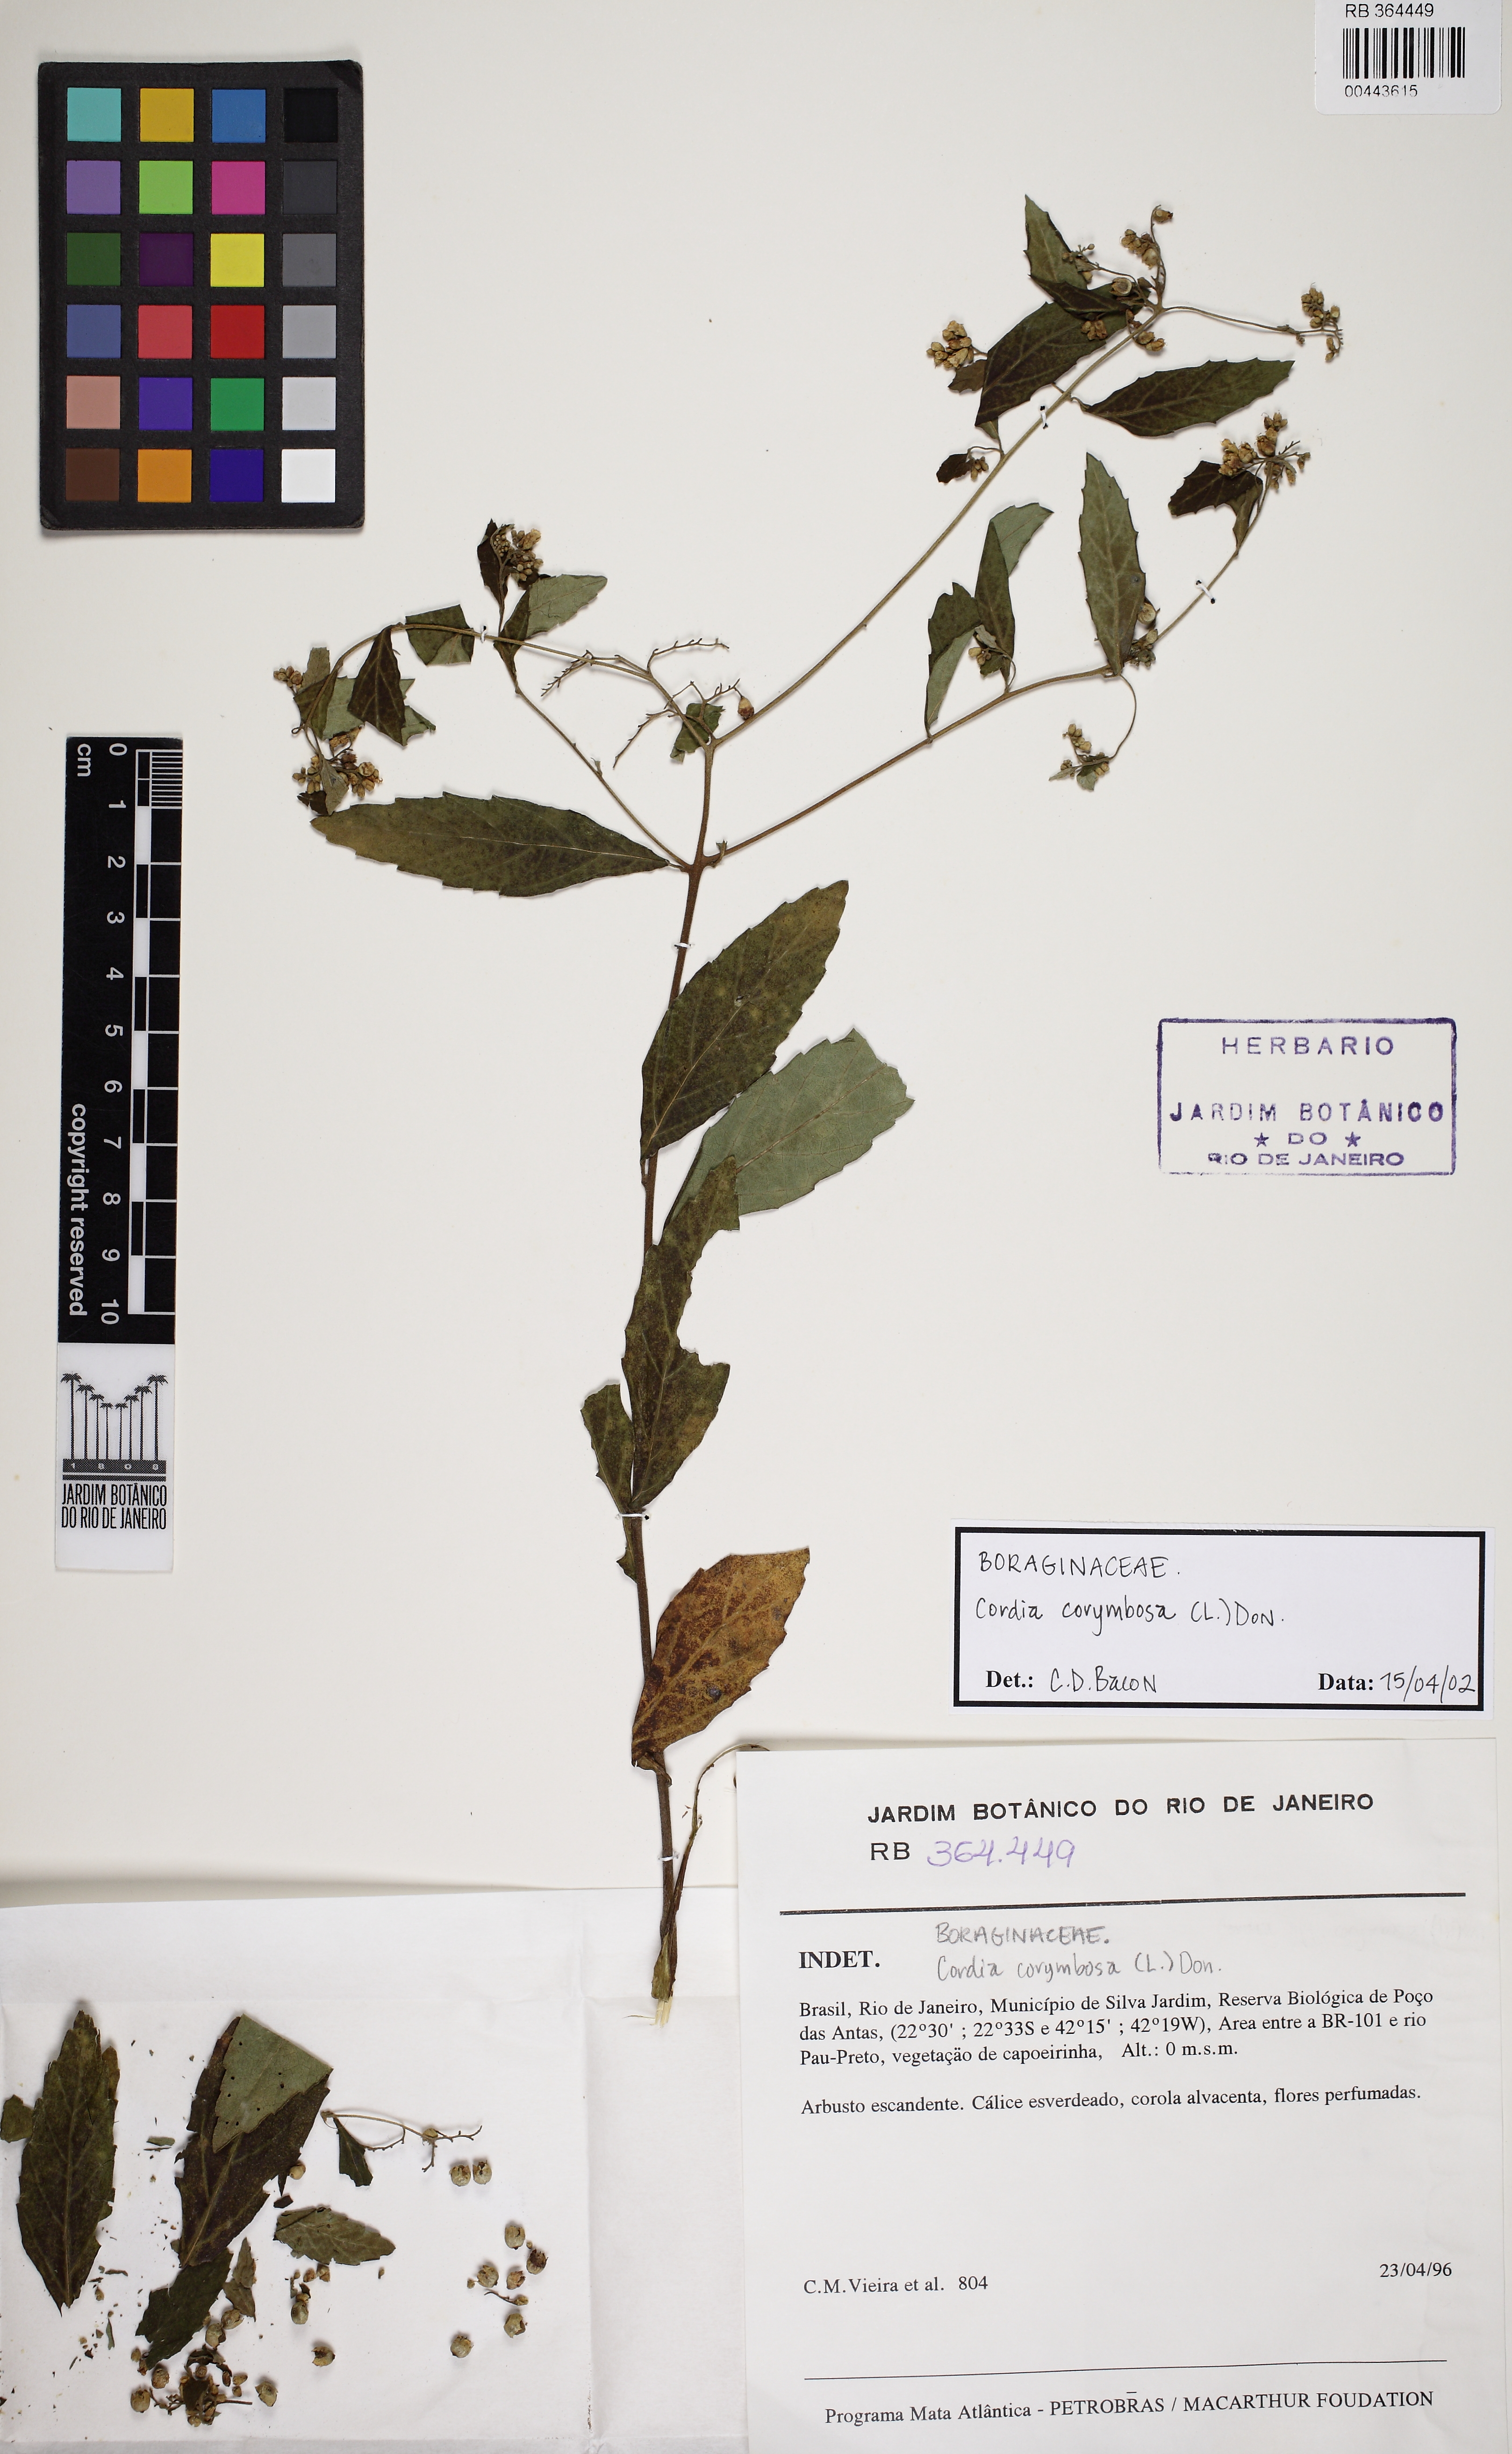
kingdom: Plantae
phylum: Tracheophyta
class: Magnoliopsida
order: Boraginales
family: Cordiaceae
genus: Varronia
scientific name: Varronia polycephala
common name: Black-sage
